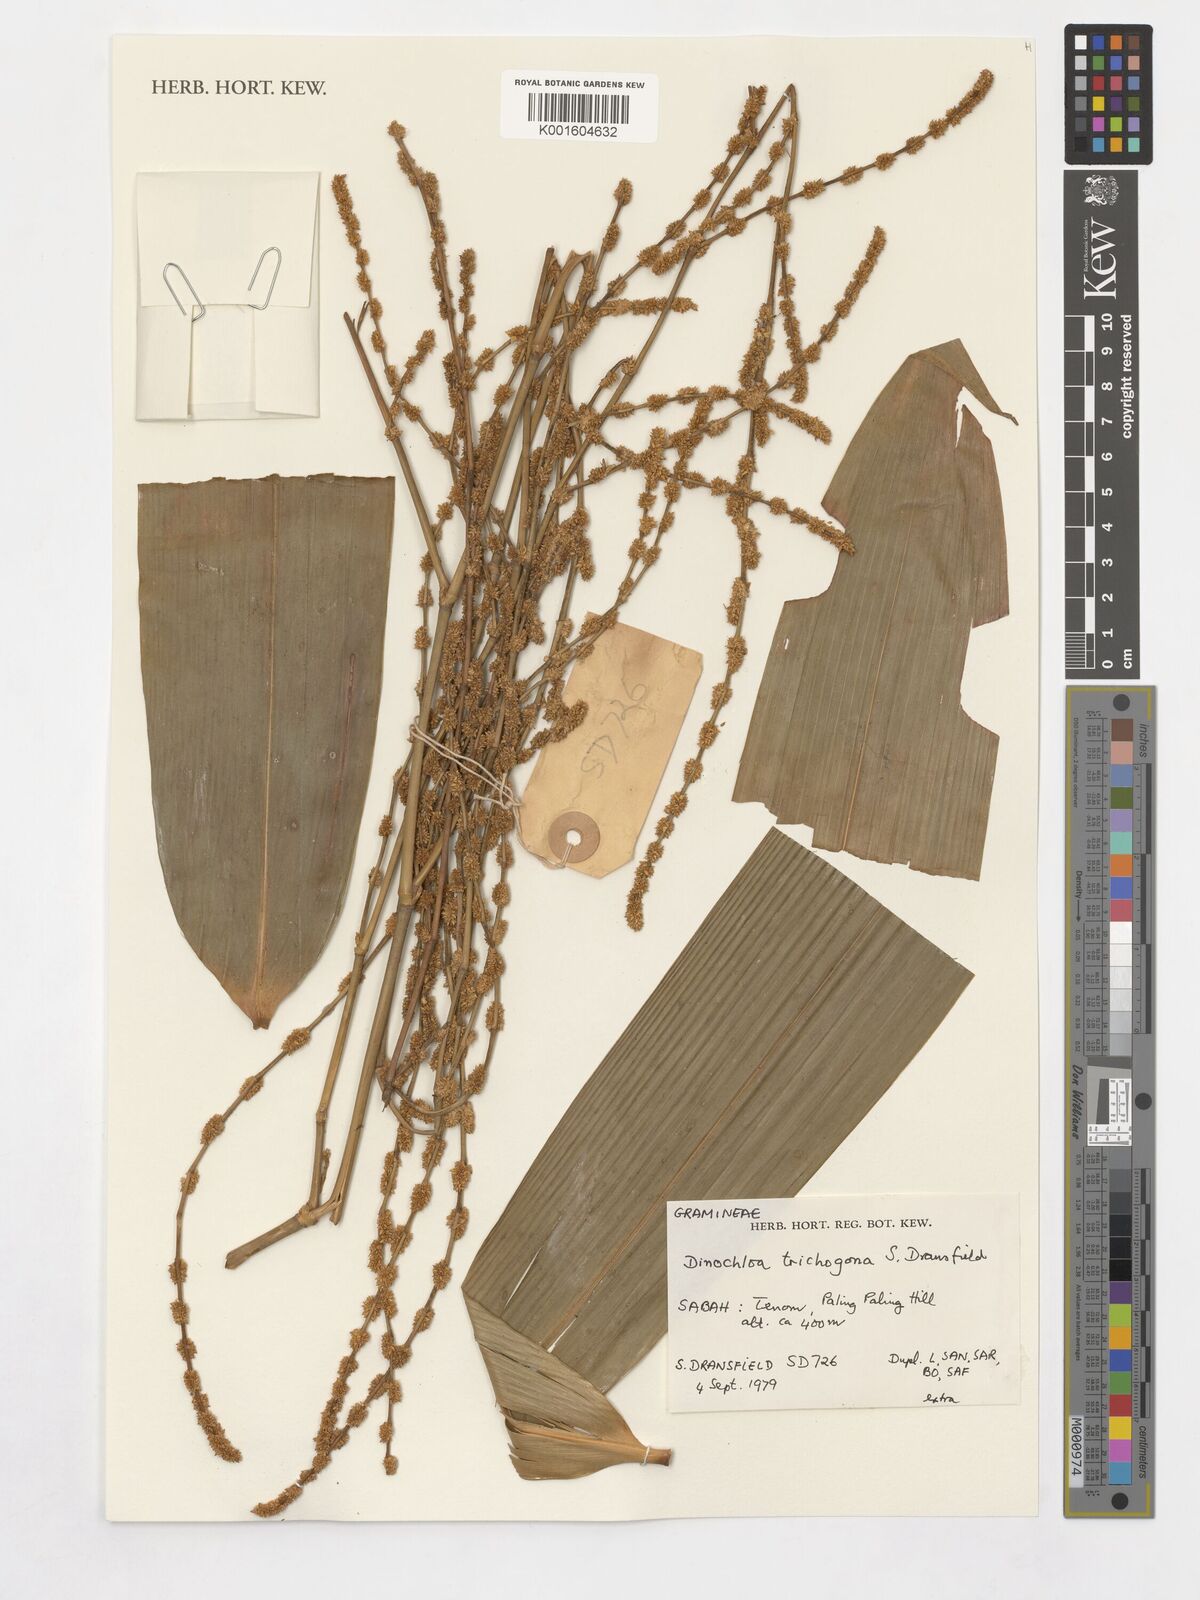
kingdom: Plantae
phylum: Tracheophyta
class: Liliopsida
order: Poales
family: Poaceae
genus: Dinochloa
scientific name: Dinochloa trichogona
